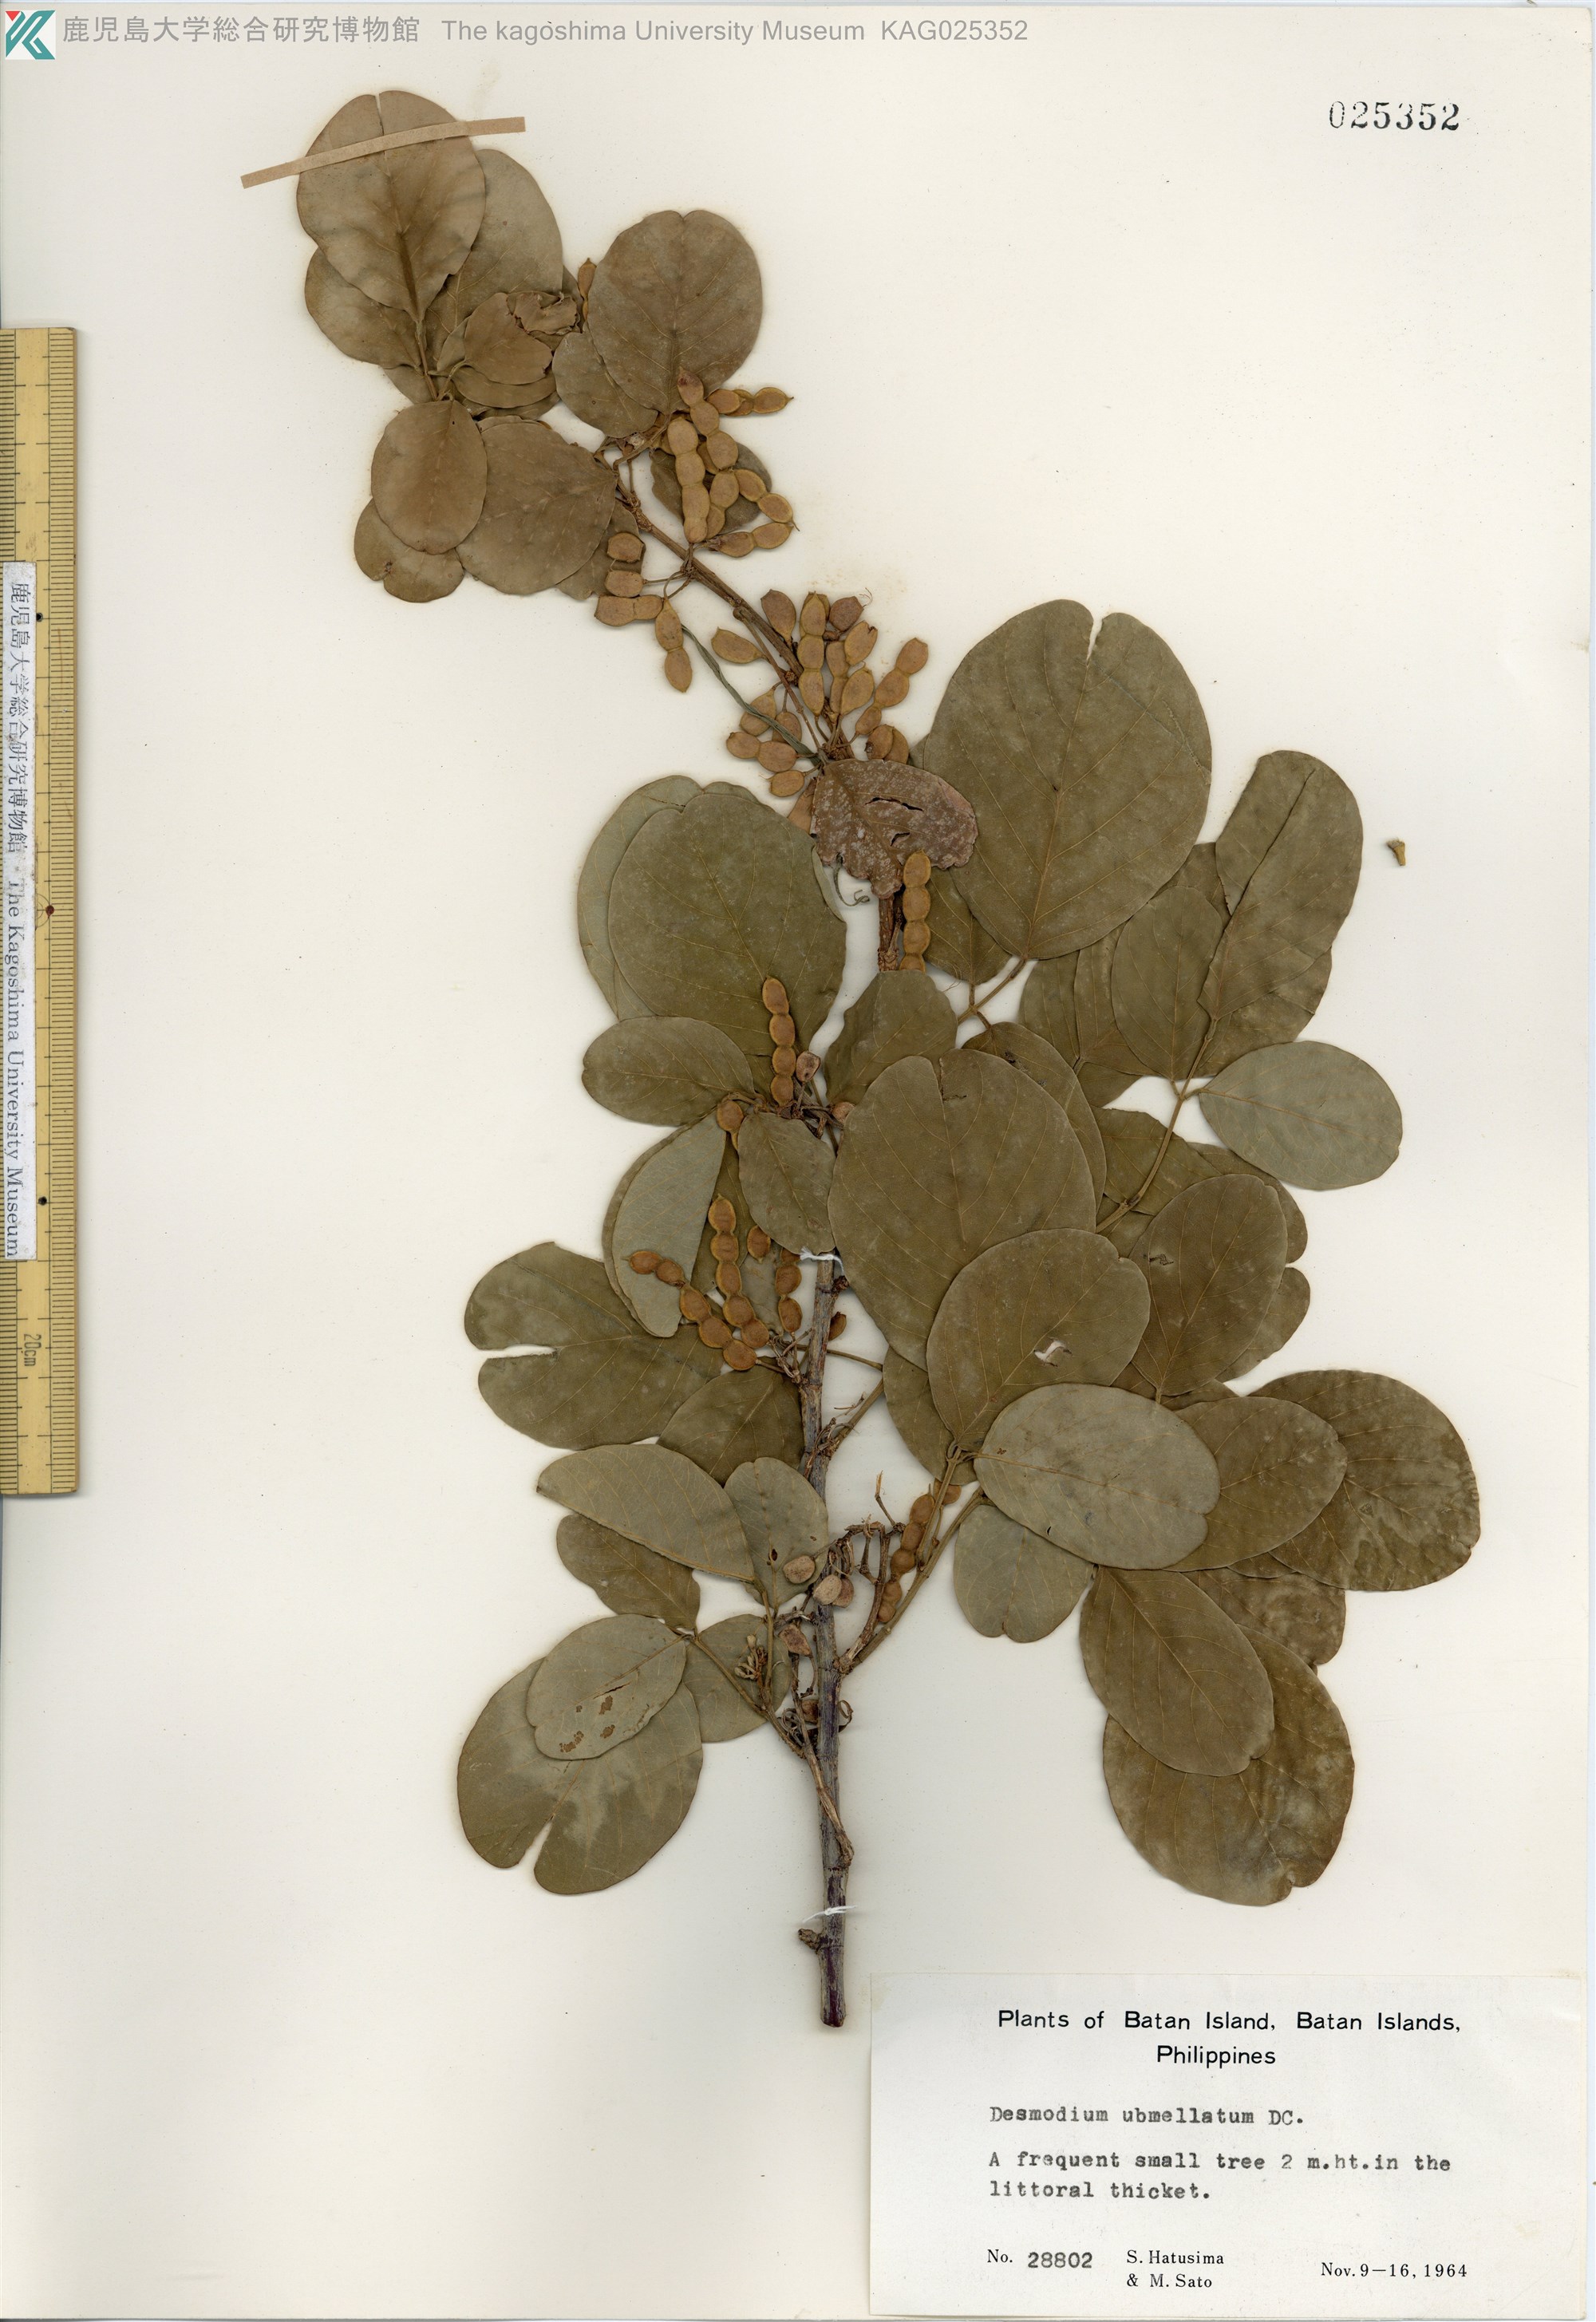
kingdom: Plantae
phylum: Tracheophyta
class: Magnoliopsida
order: Fabales
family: Fabaceae
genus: Desmodium
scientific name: Desmodium umbellatum
